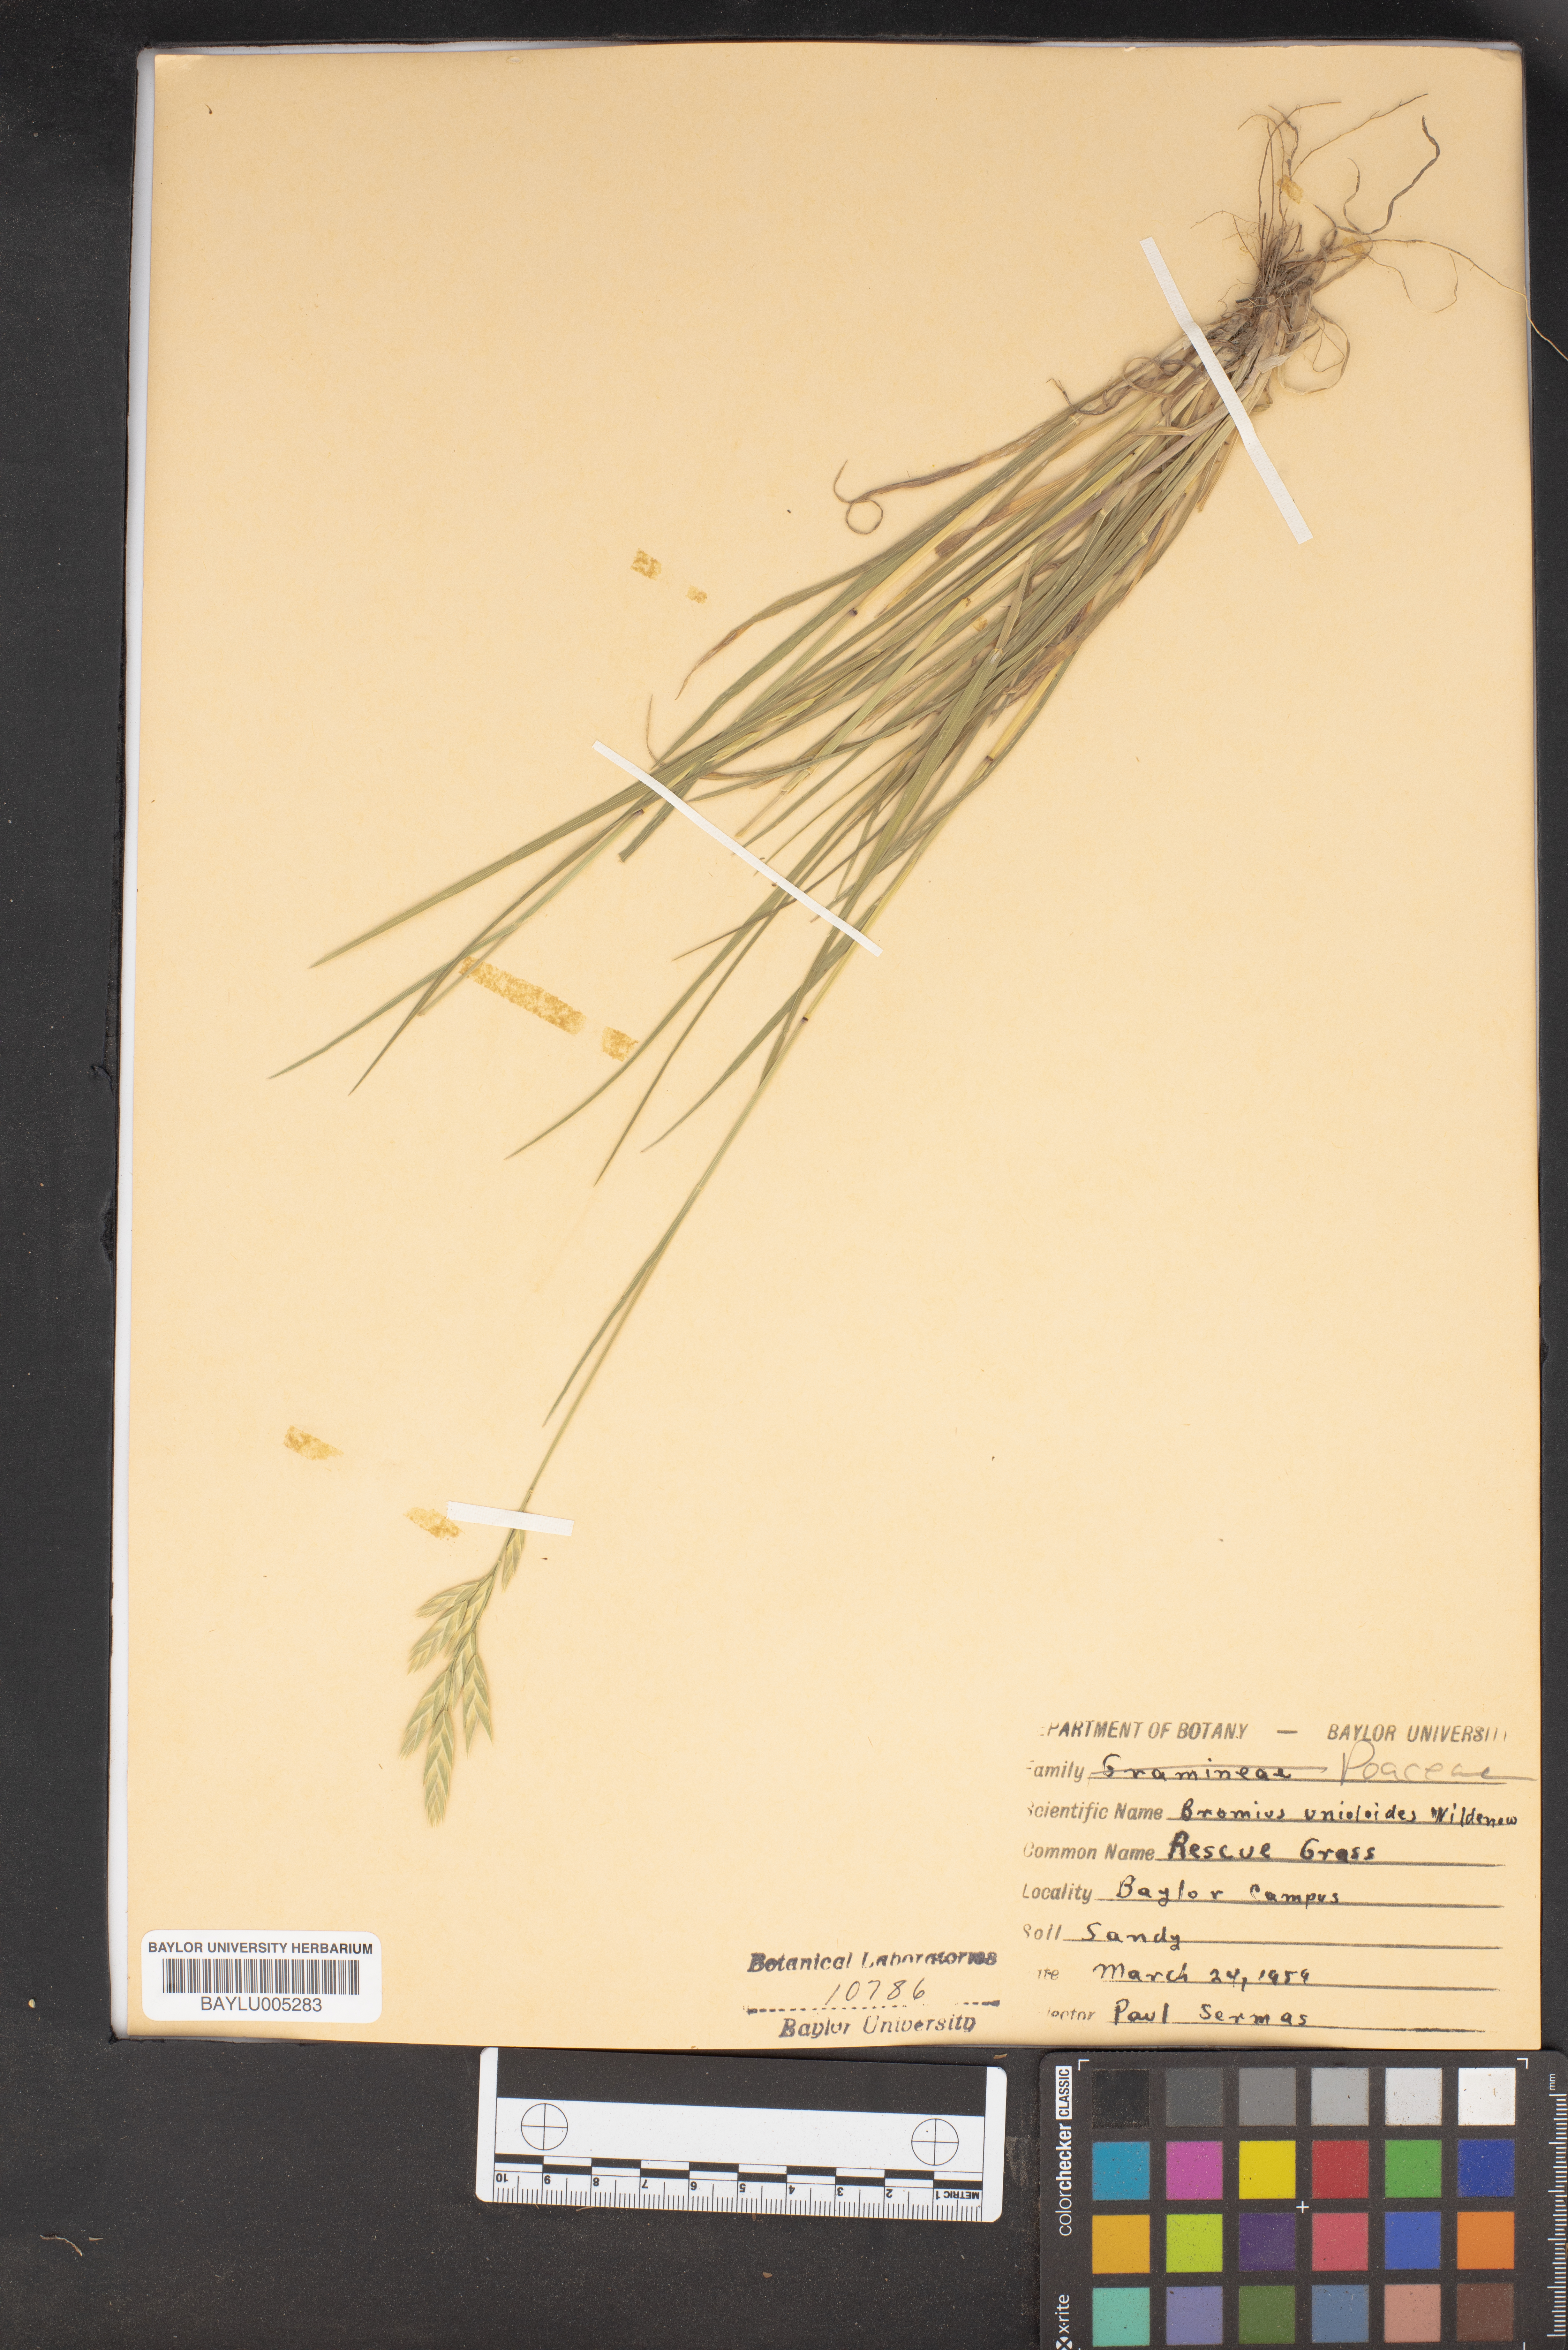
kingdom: Plantae
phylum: Tracheophyta
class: Liliopsida
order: Poales
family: Poaceae
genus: Bromus
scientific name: Bromus catharticus
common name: Rescuegrass
